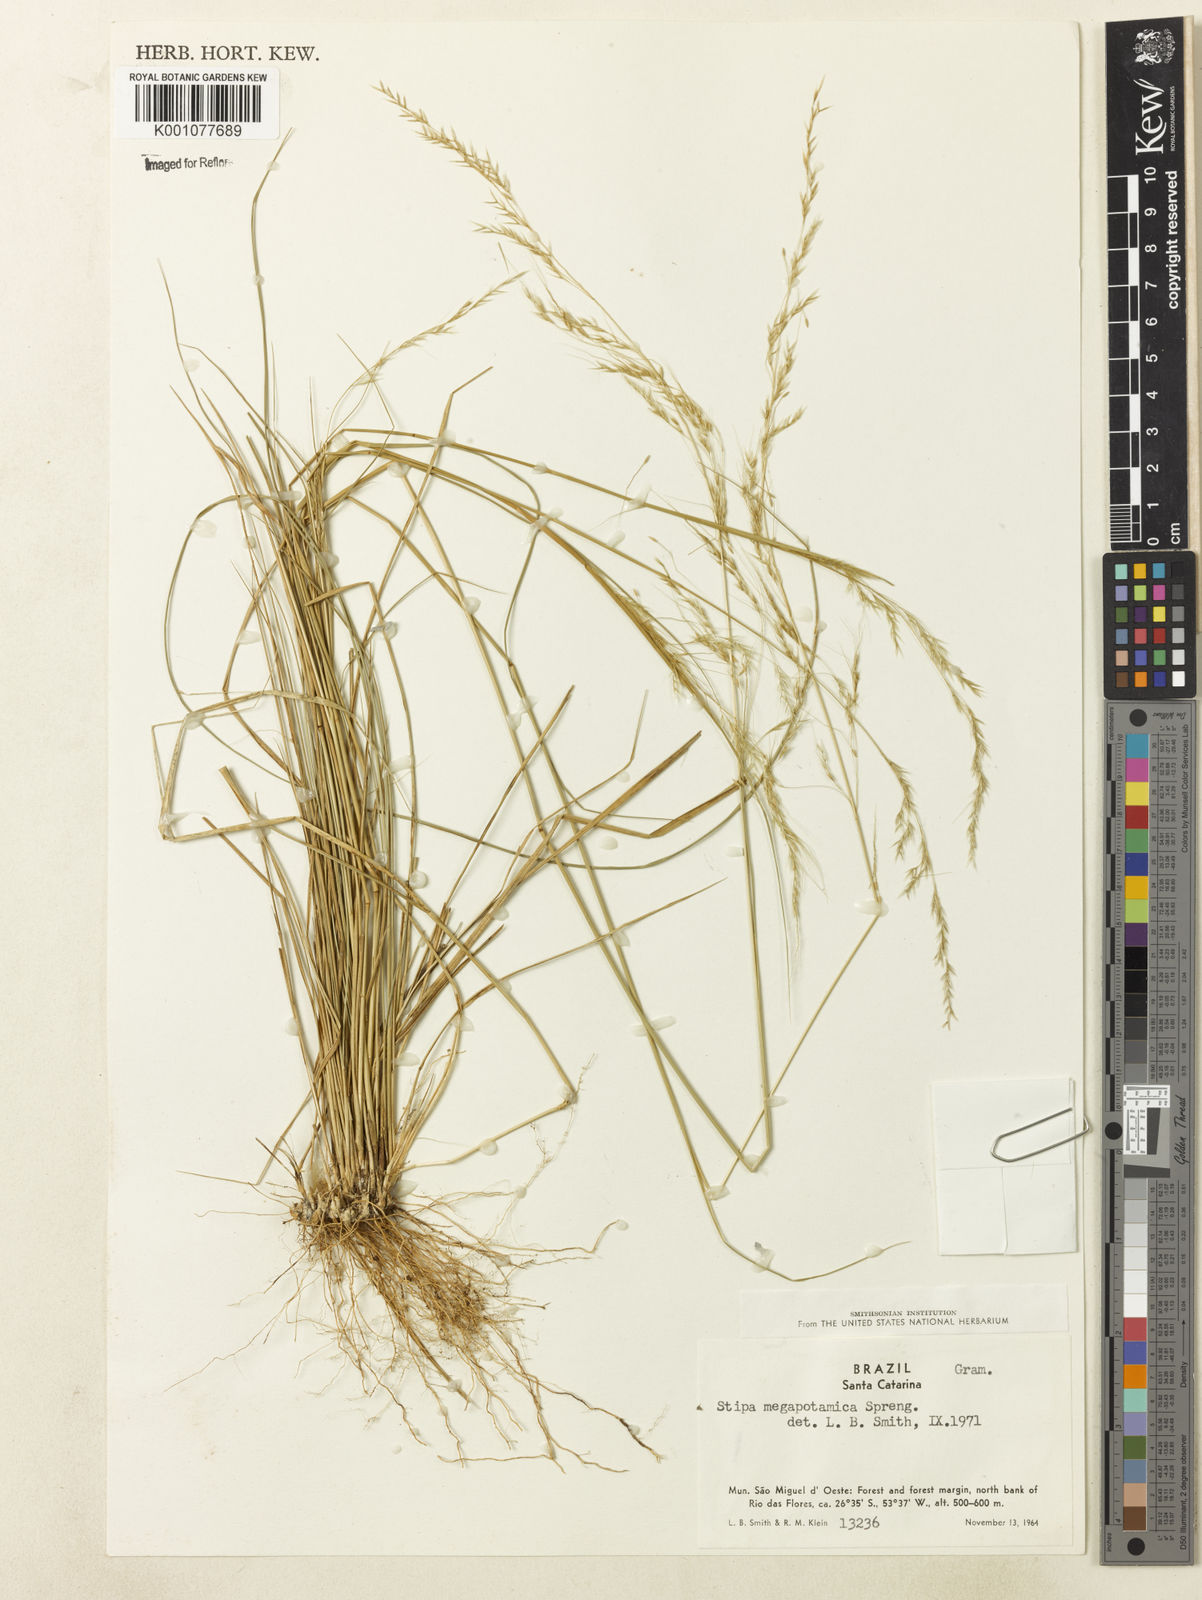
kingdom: Plantae
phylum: Tracheophyta
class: Liliopsida
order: Poales
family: Poaceae
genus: Jarava
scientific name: Jarava filifolia
